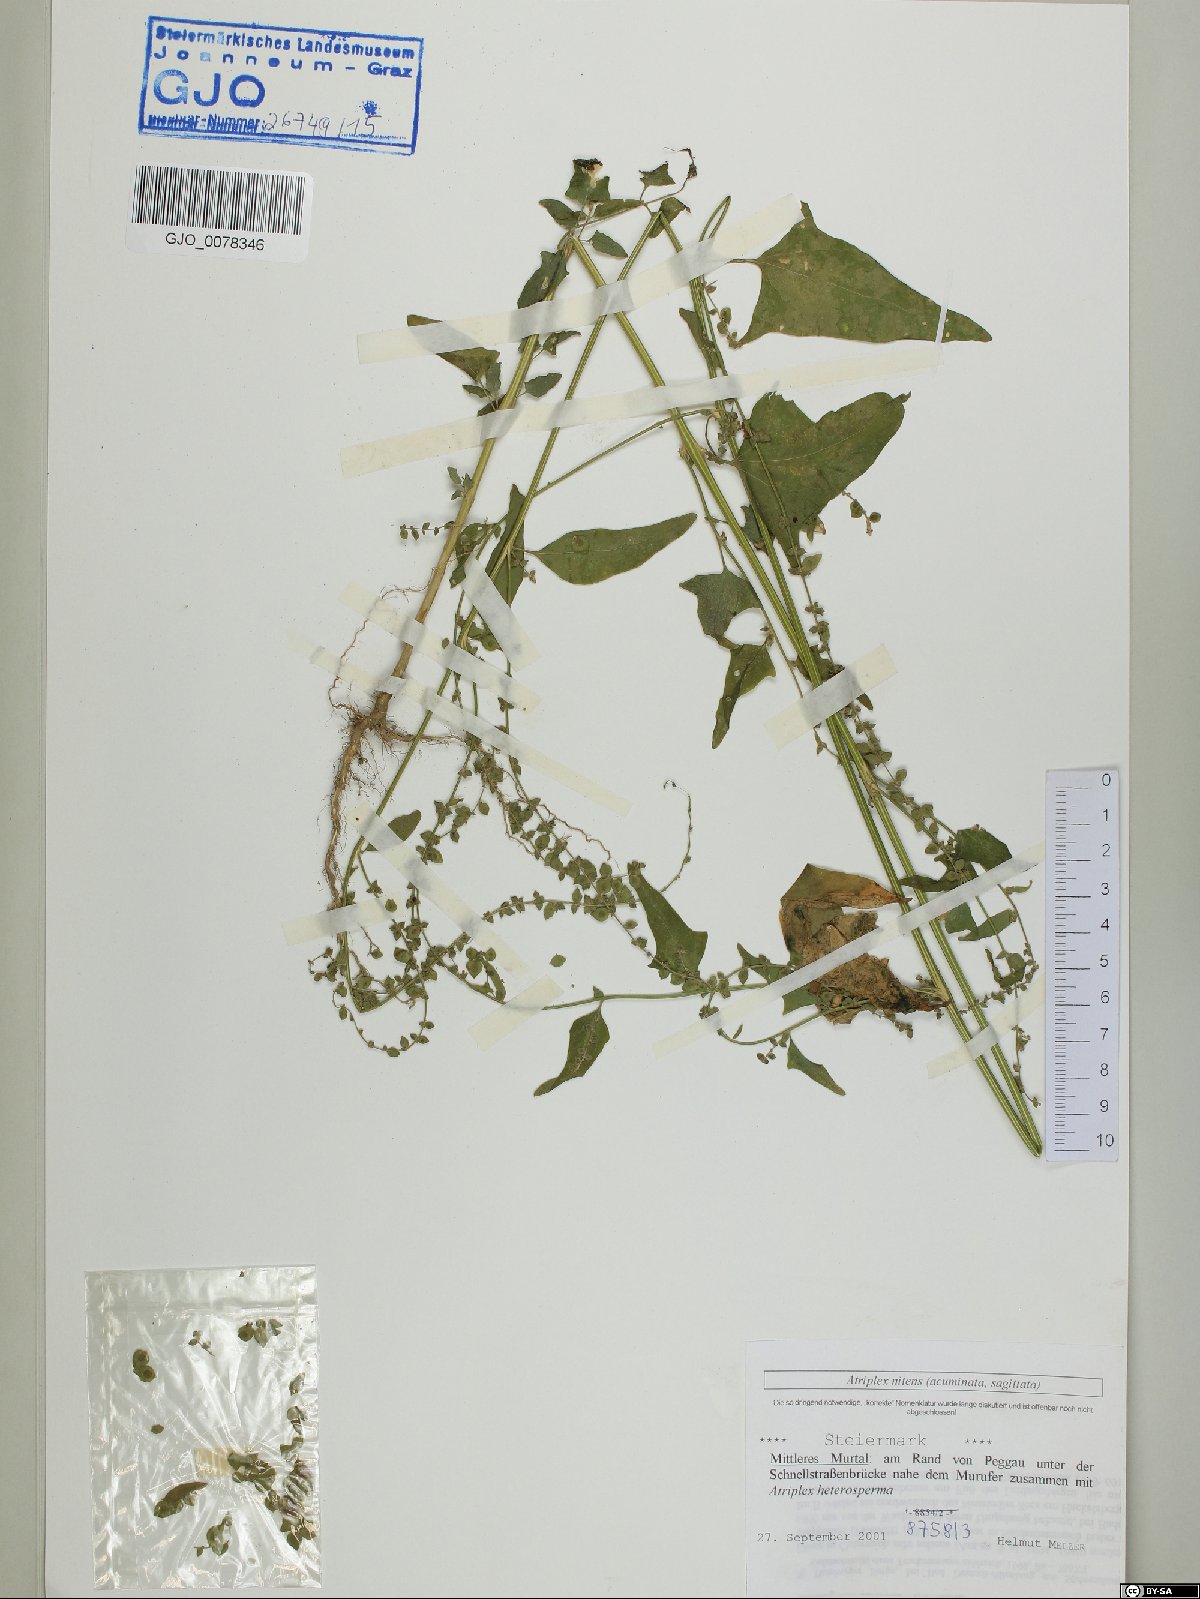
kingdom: Plantae
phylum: Tracheophyta
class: Magnoliopsida
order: Caryophyllales
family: Amaranthaceae
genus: Atriplex
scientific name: Atriplex sagittata
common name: Purple orache
